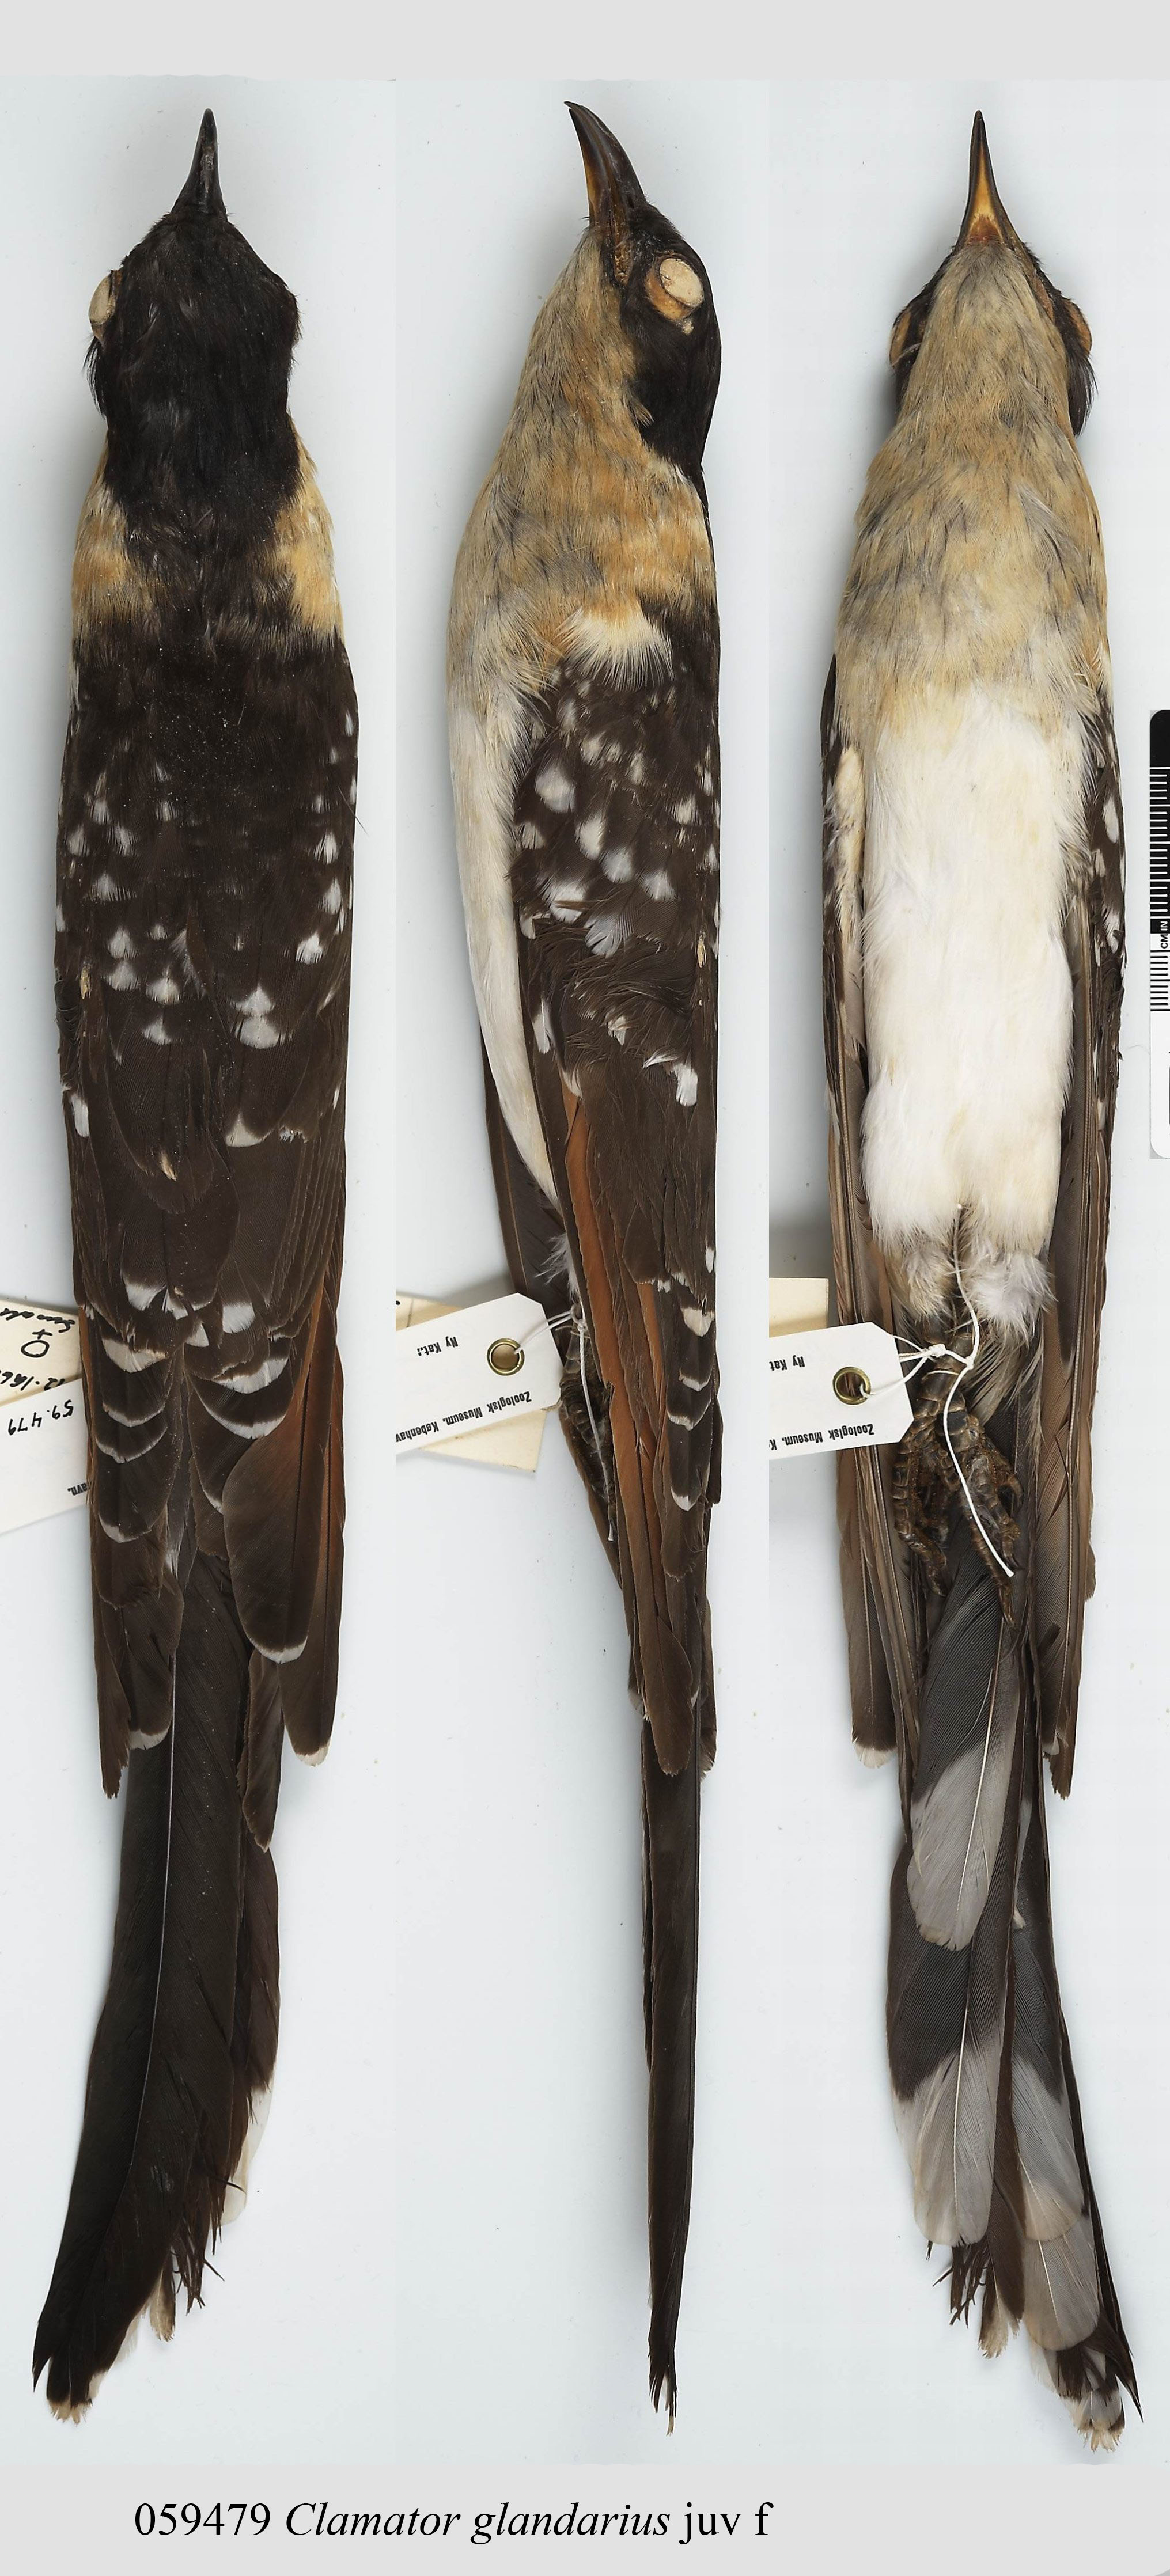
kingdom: Animalia
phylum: Chordata
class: Aves
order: Cuculiformes
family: Cuculidae
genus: Clamator
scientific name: Clamator glandarius
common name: Great spotted cuckoo
